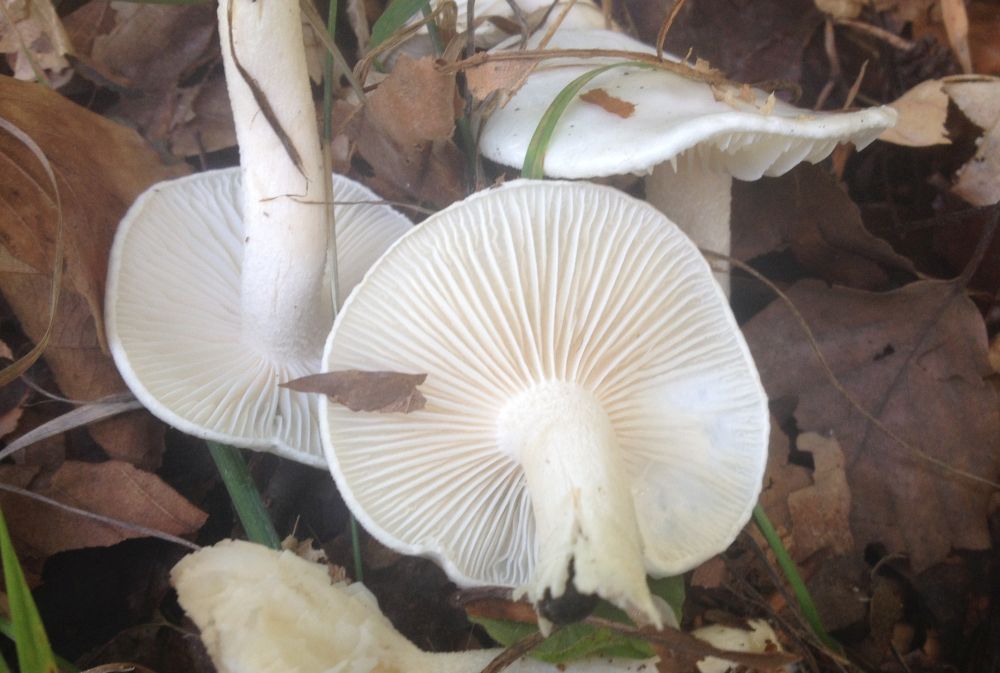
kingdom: Fungi
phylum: Basidiomycota
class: Agaricomycetes
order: Agaricales
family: Hygrophoraceae
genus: Hygrophorus
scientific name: Hygrophorus eburneus
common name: elfenbens-sneglehat
